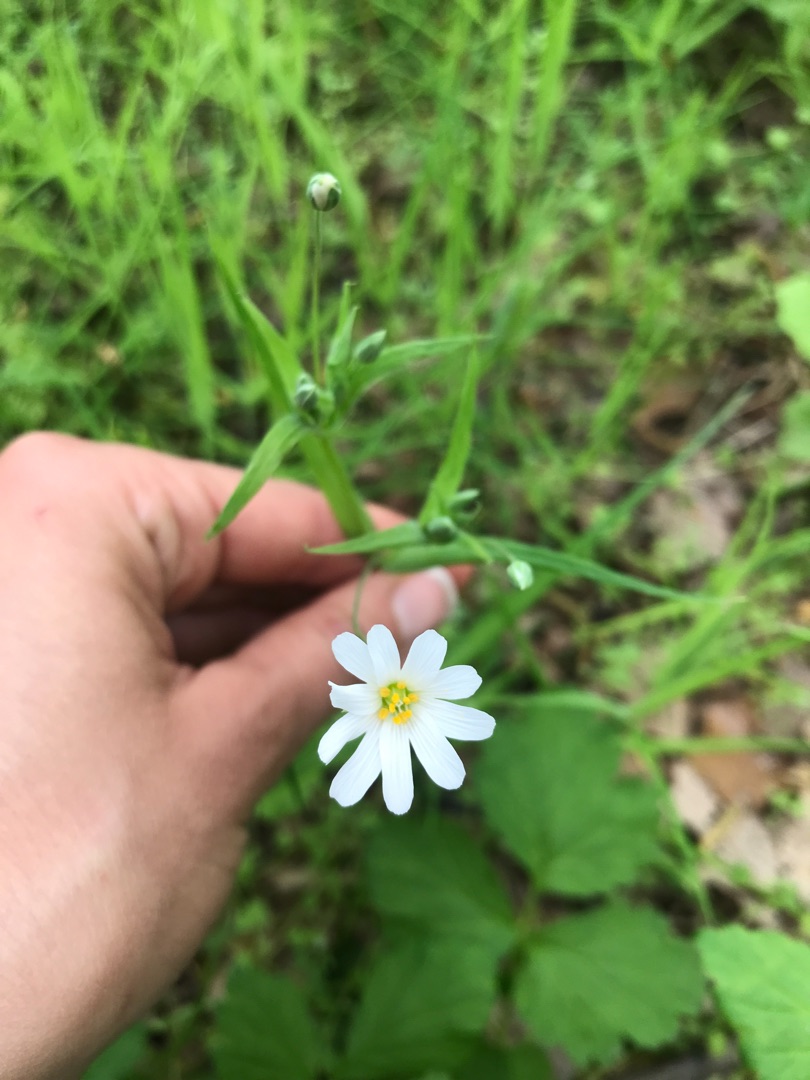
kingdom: Plantae
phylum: Tracheophyta
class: Magnoliopsida
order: Caryophyllales
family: Caryophyllaceae
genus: Rabelera
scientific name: Rabelera holostea
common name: Stor fladstjerne
